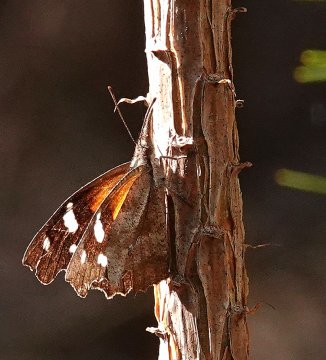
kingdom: Animalia
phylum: Arthropoda
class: Insecta
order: Lepidoptera
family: Nymphalidae
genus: Libytheana
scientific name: Libytheana carinenta
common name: American Snout
